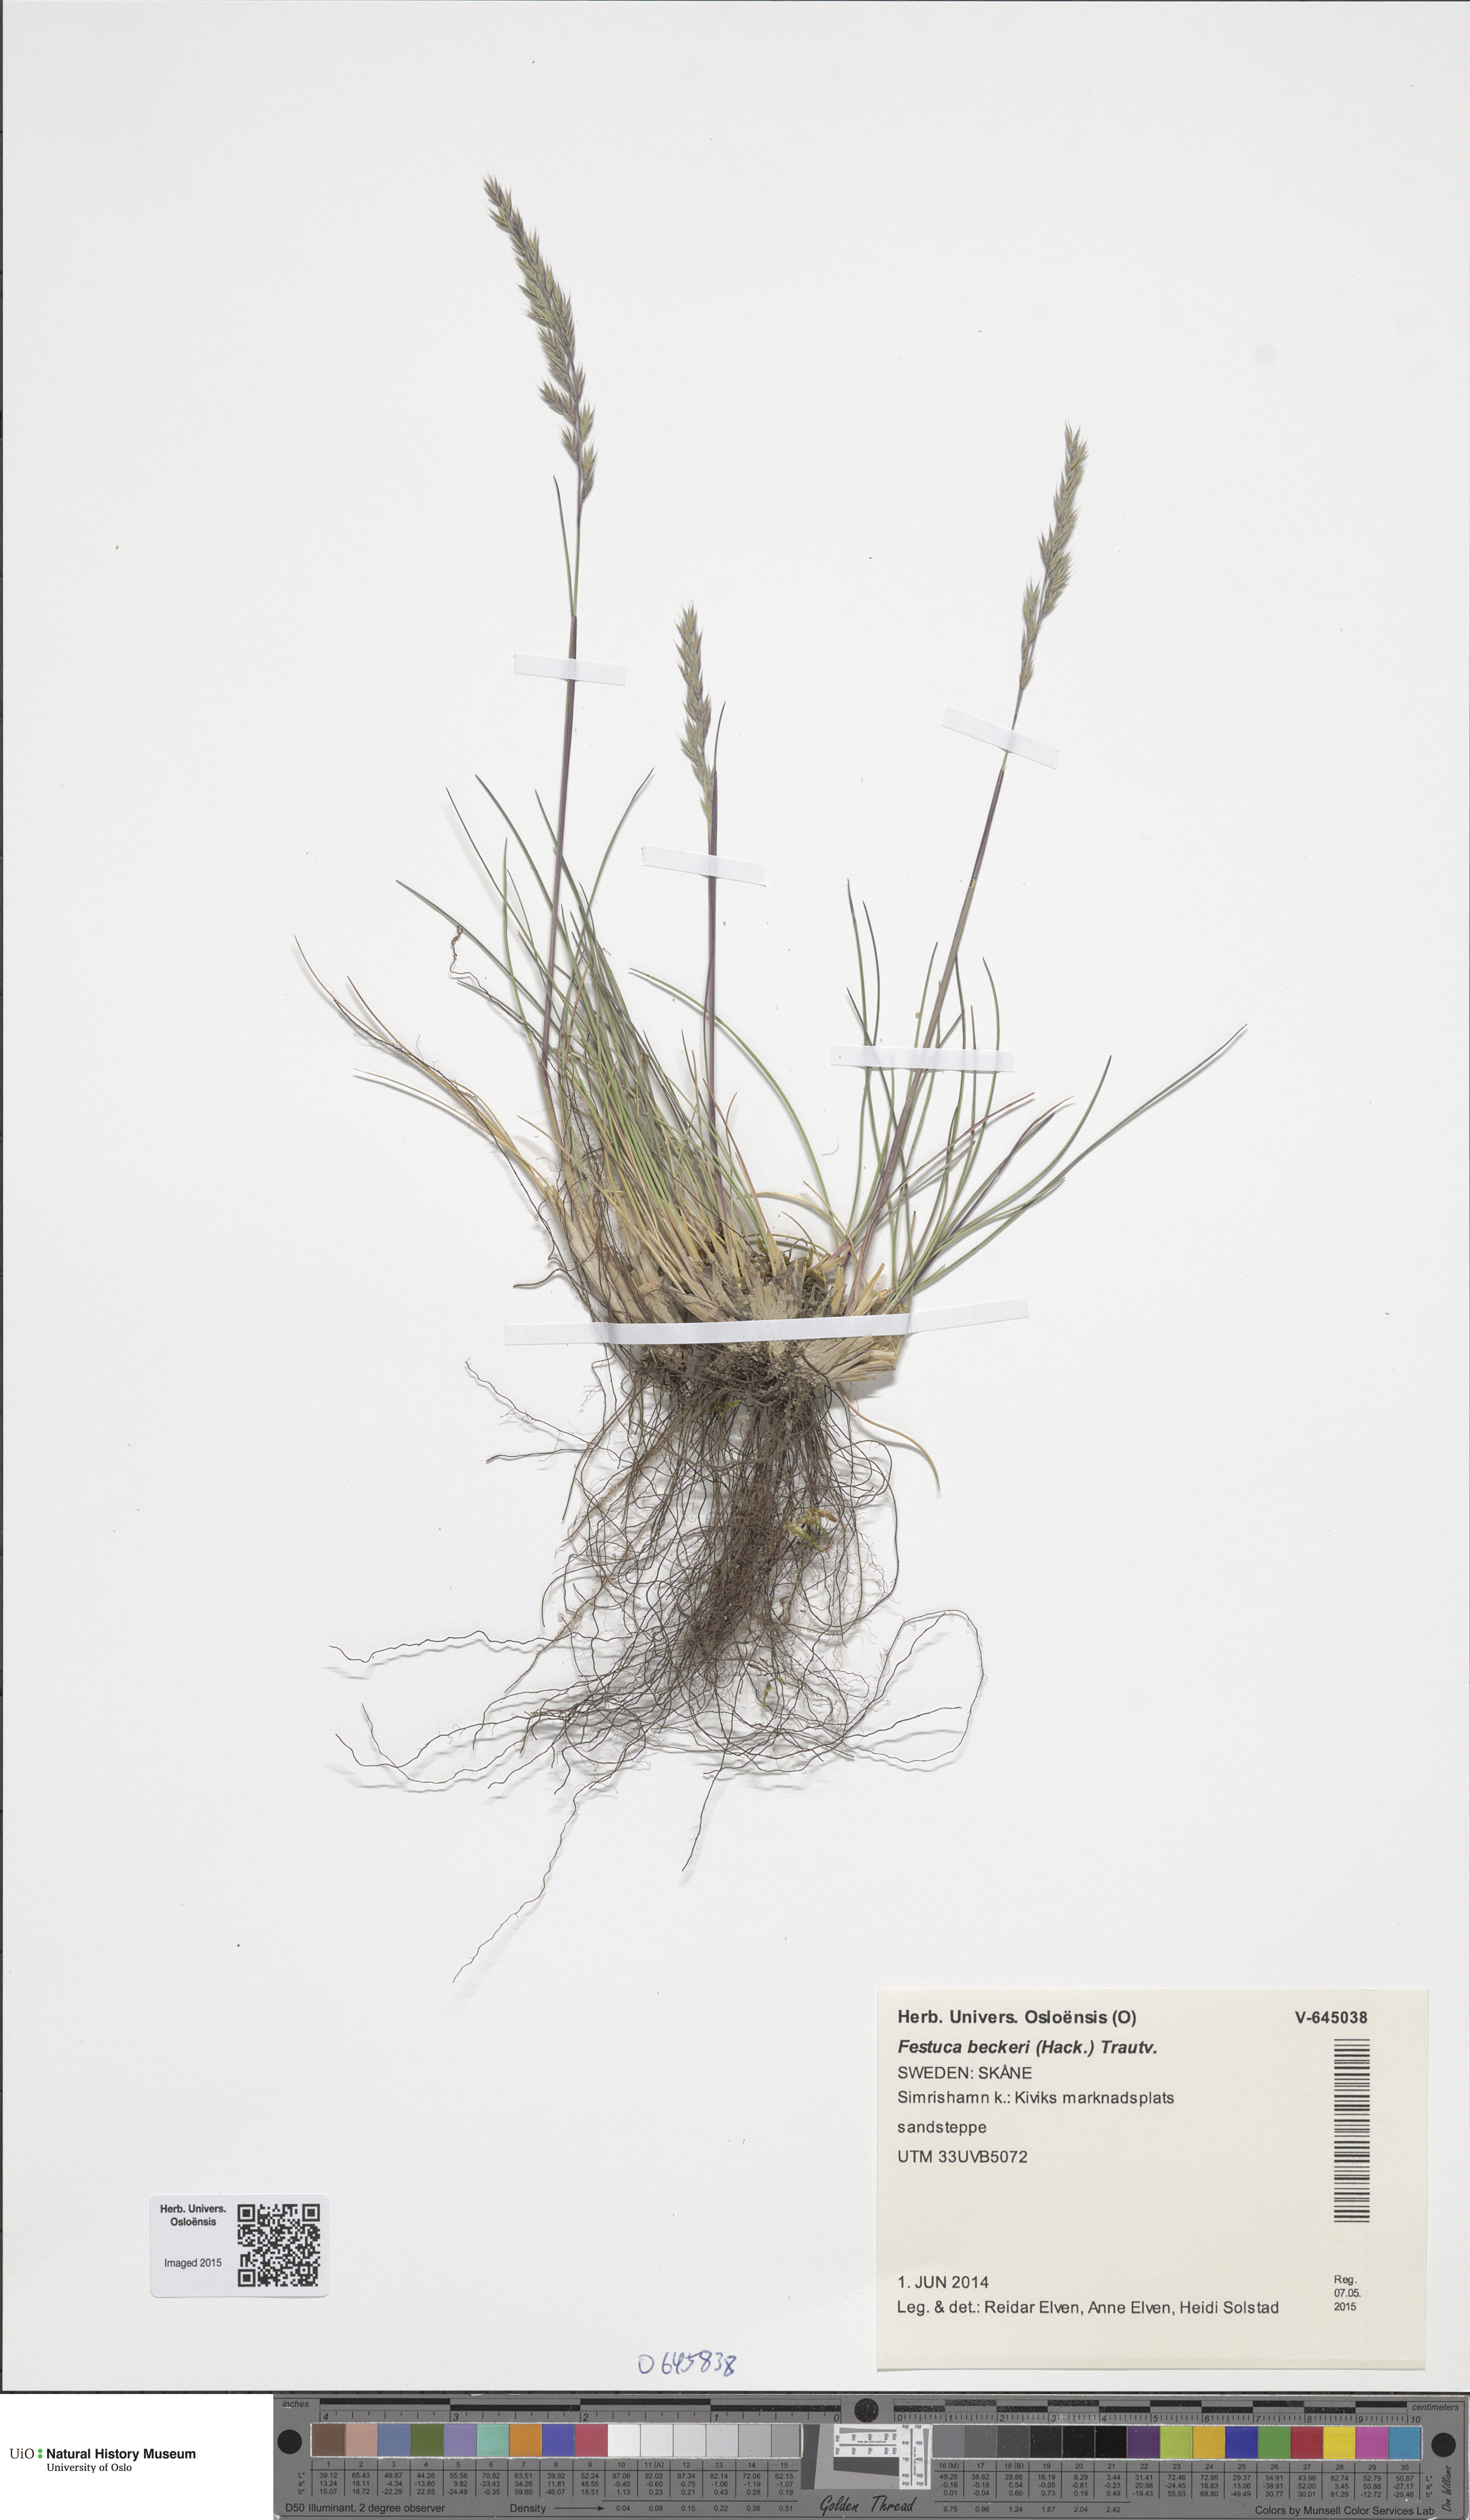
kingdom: Plantae
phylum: Tracheophyta
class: Liliopsida
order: Poales
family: Poaceae
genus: Festuca
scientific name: Festuca beckeri
